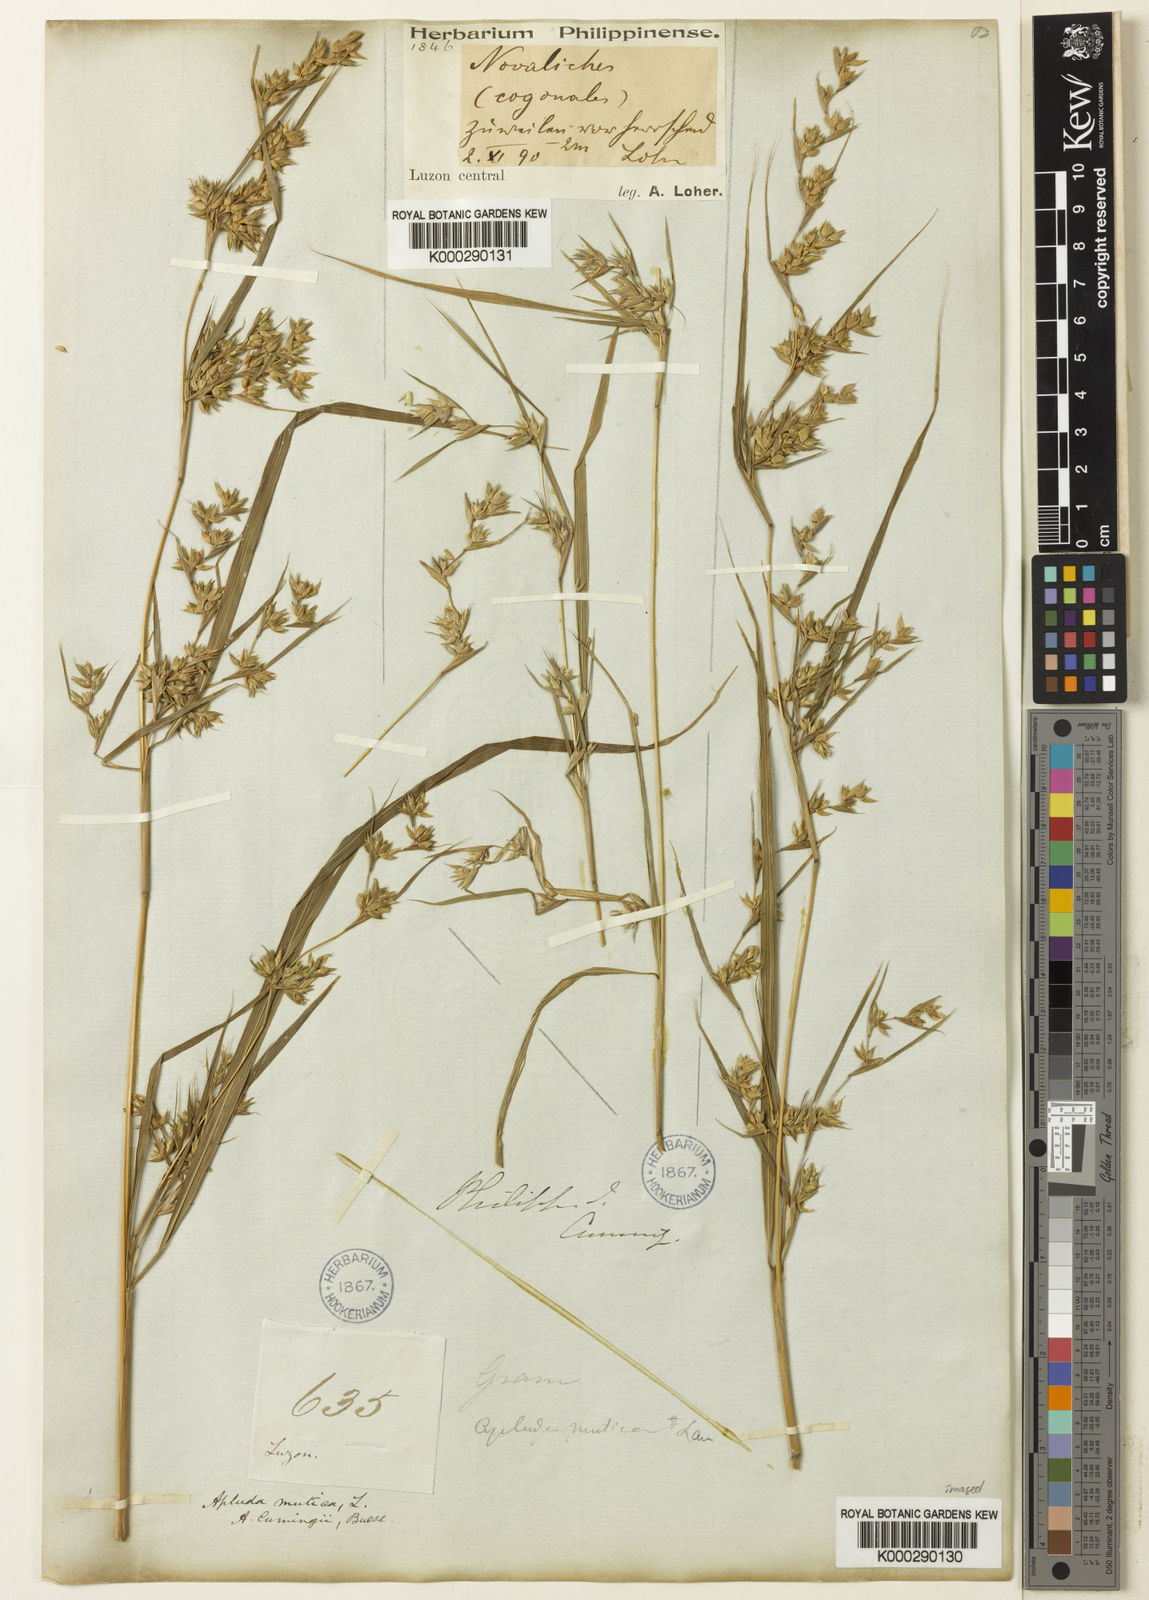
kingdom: Plantae
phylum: Tracheophyta
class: Liliopsida
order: Poales
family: Poaceae
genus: Apluda
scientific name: Apluda mutica
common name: Mauritian grass
